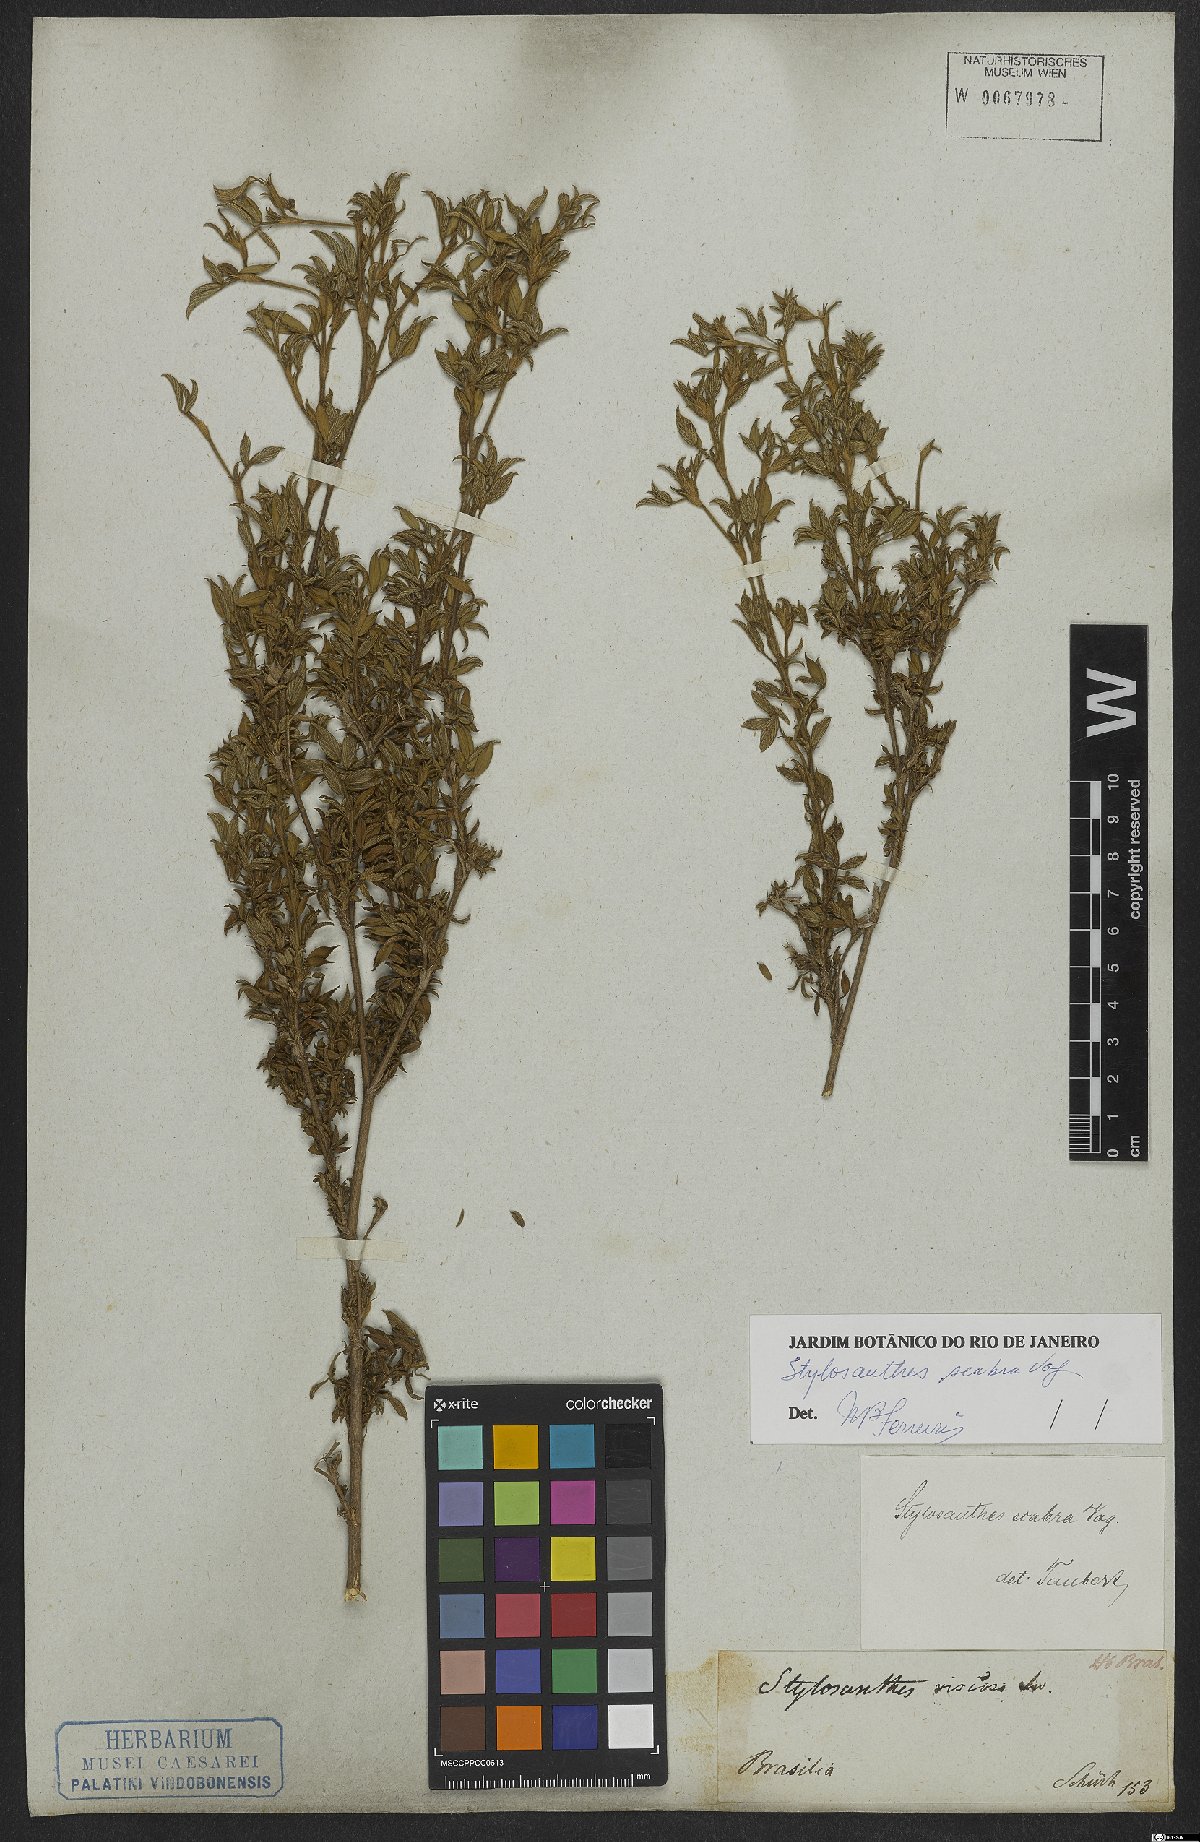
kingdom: Plantae
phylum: Tracheophyta
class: Magnoliopsida
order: Fabales
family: Fabaceae
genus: Stylosanthes
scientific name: Stylosanthes scabra
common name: Pencilflower
